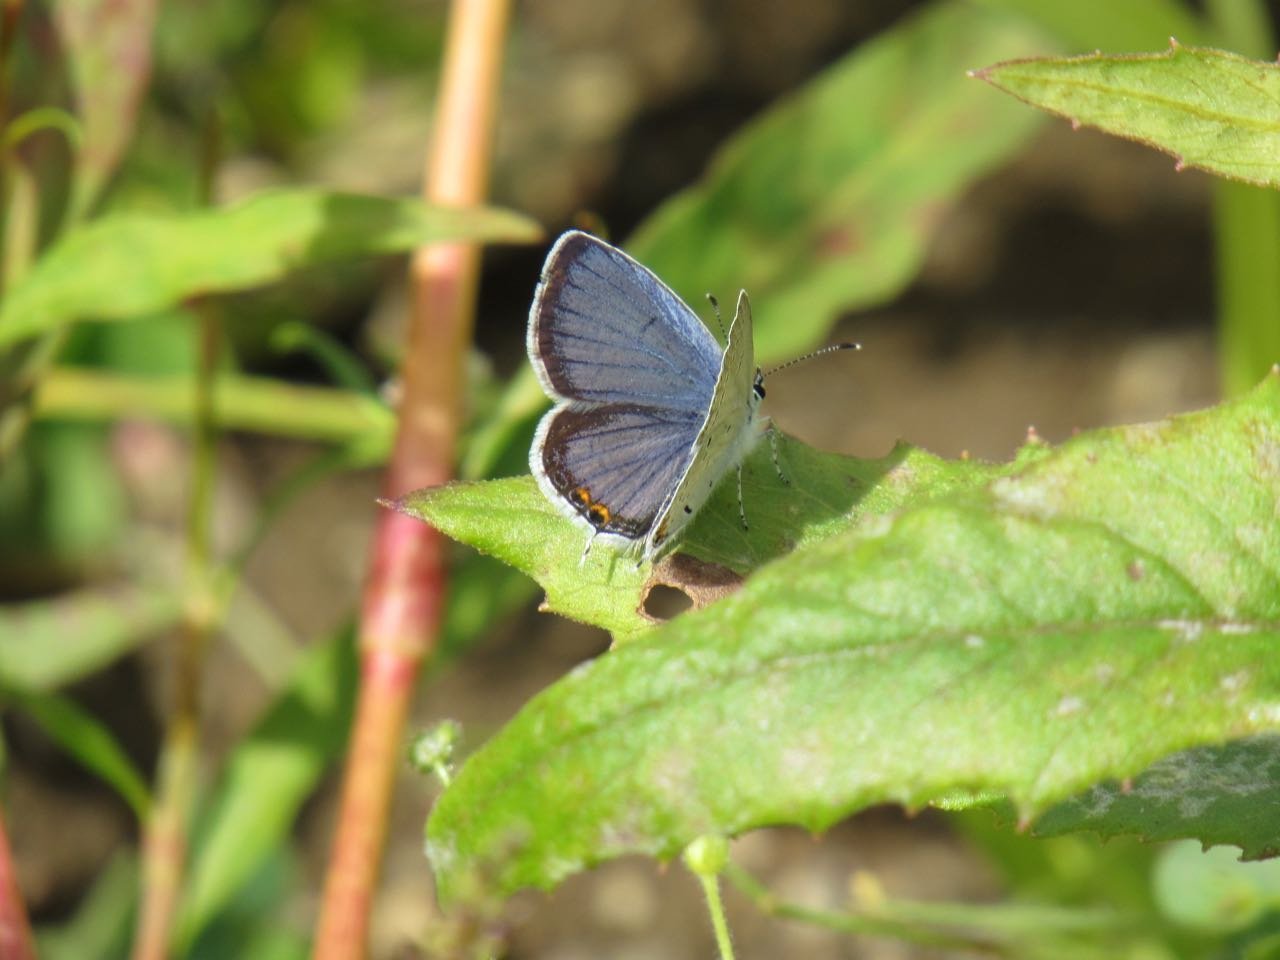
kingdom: Animalia
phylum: Arthropoda
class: Insecta
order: Lepidoptera
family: Lycaenidae
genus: Elkalyce
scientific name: Elkalyce comyntas
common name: Eastern Tailed-Blue
